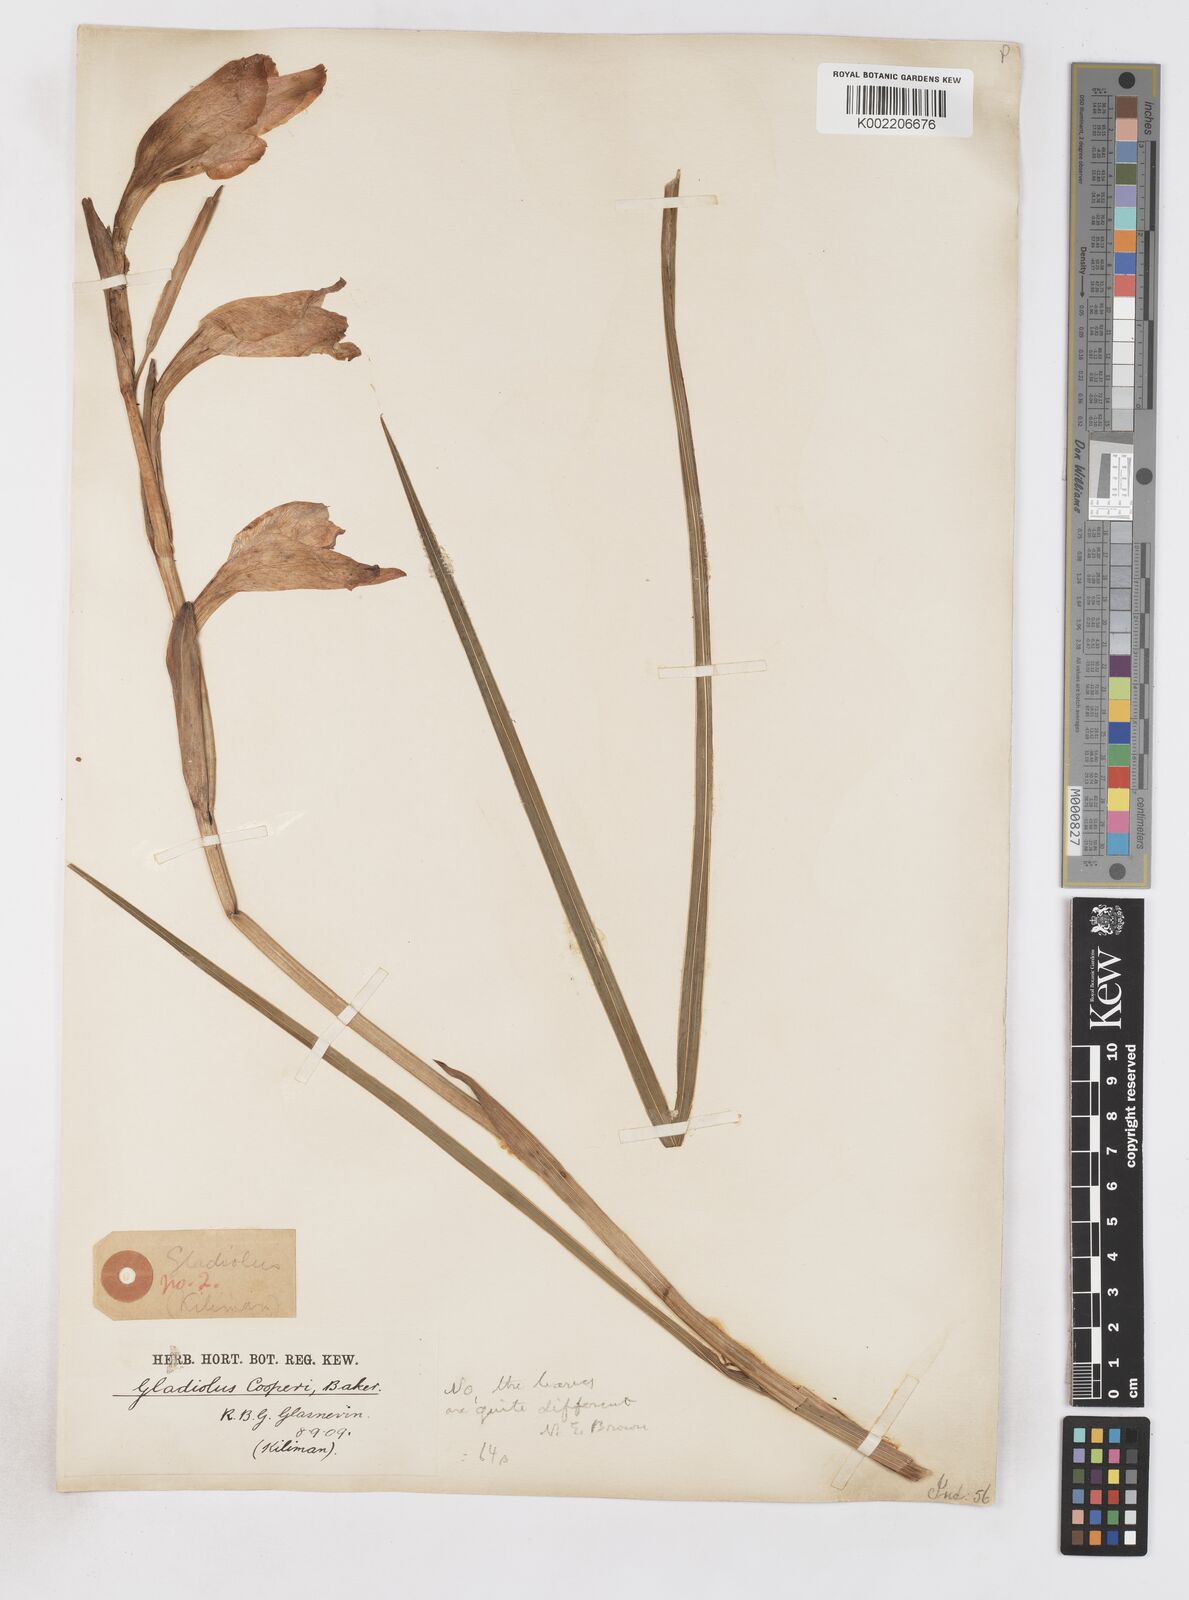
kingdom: Plantae
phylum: Tracheophyta
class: Liliopsida
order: Asparagales
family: Iridaceae
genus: Gladiolus
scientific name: Gladiolus dalenii
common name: Cornflag
